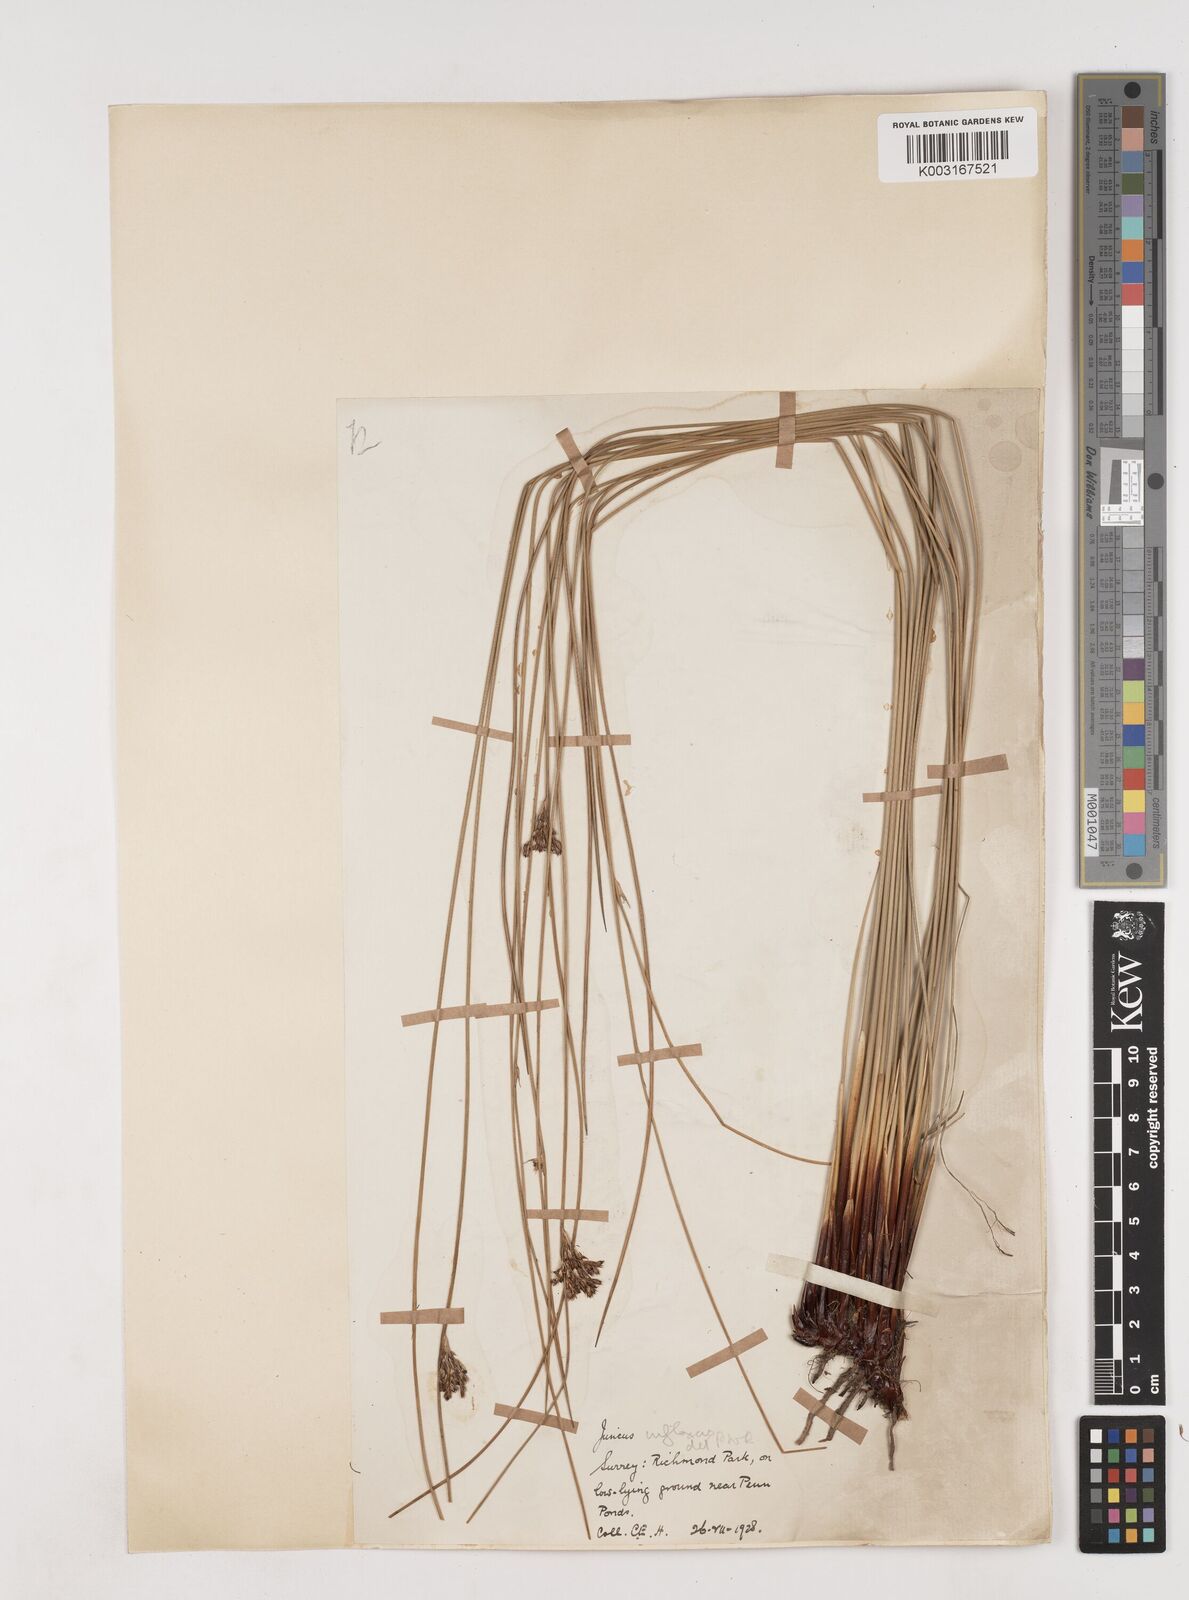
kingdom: Plantae
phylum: Tracheophyta
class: Liliopsida
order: Poales
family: Juncaceae
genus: Juncus
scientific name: Juncus inflexus
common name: Hard rush
